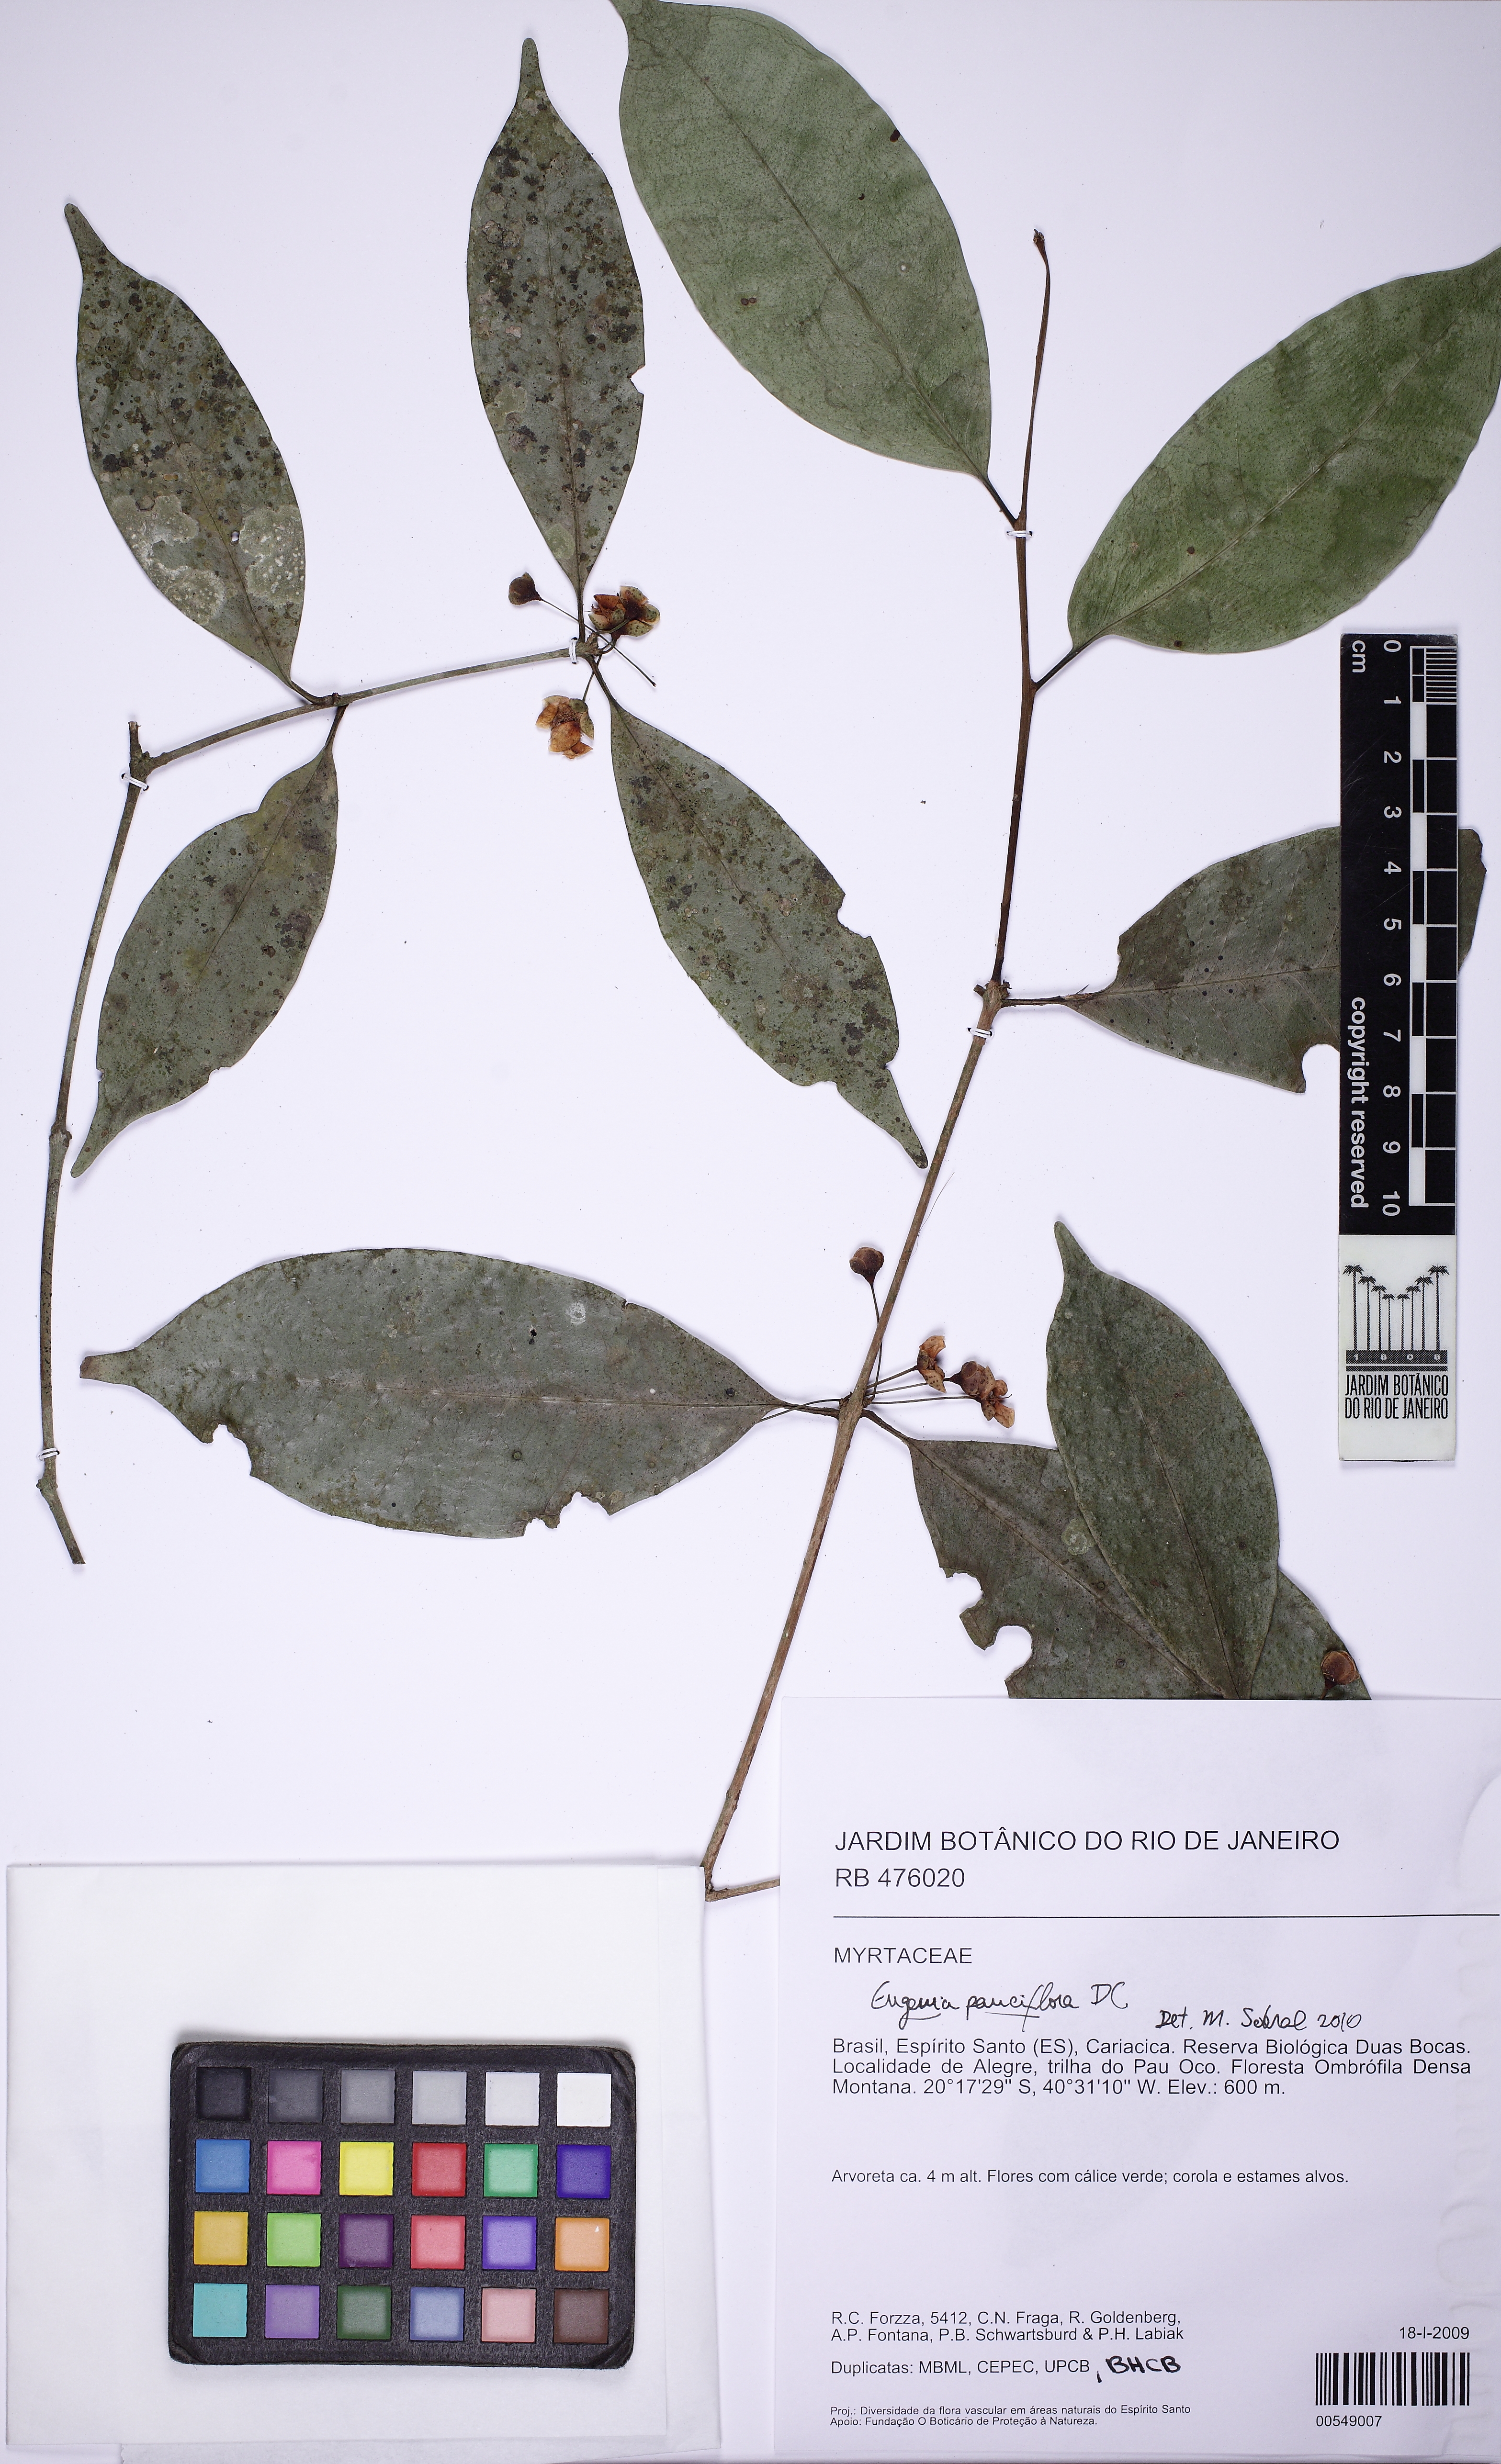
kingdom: Plantae
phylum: Tracheophyta
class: Magnoliopsida
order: Myrtales
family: Myrtaceae
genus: Eugenia
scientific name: Eugenia pauciflora
